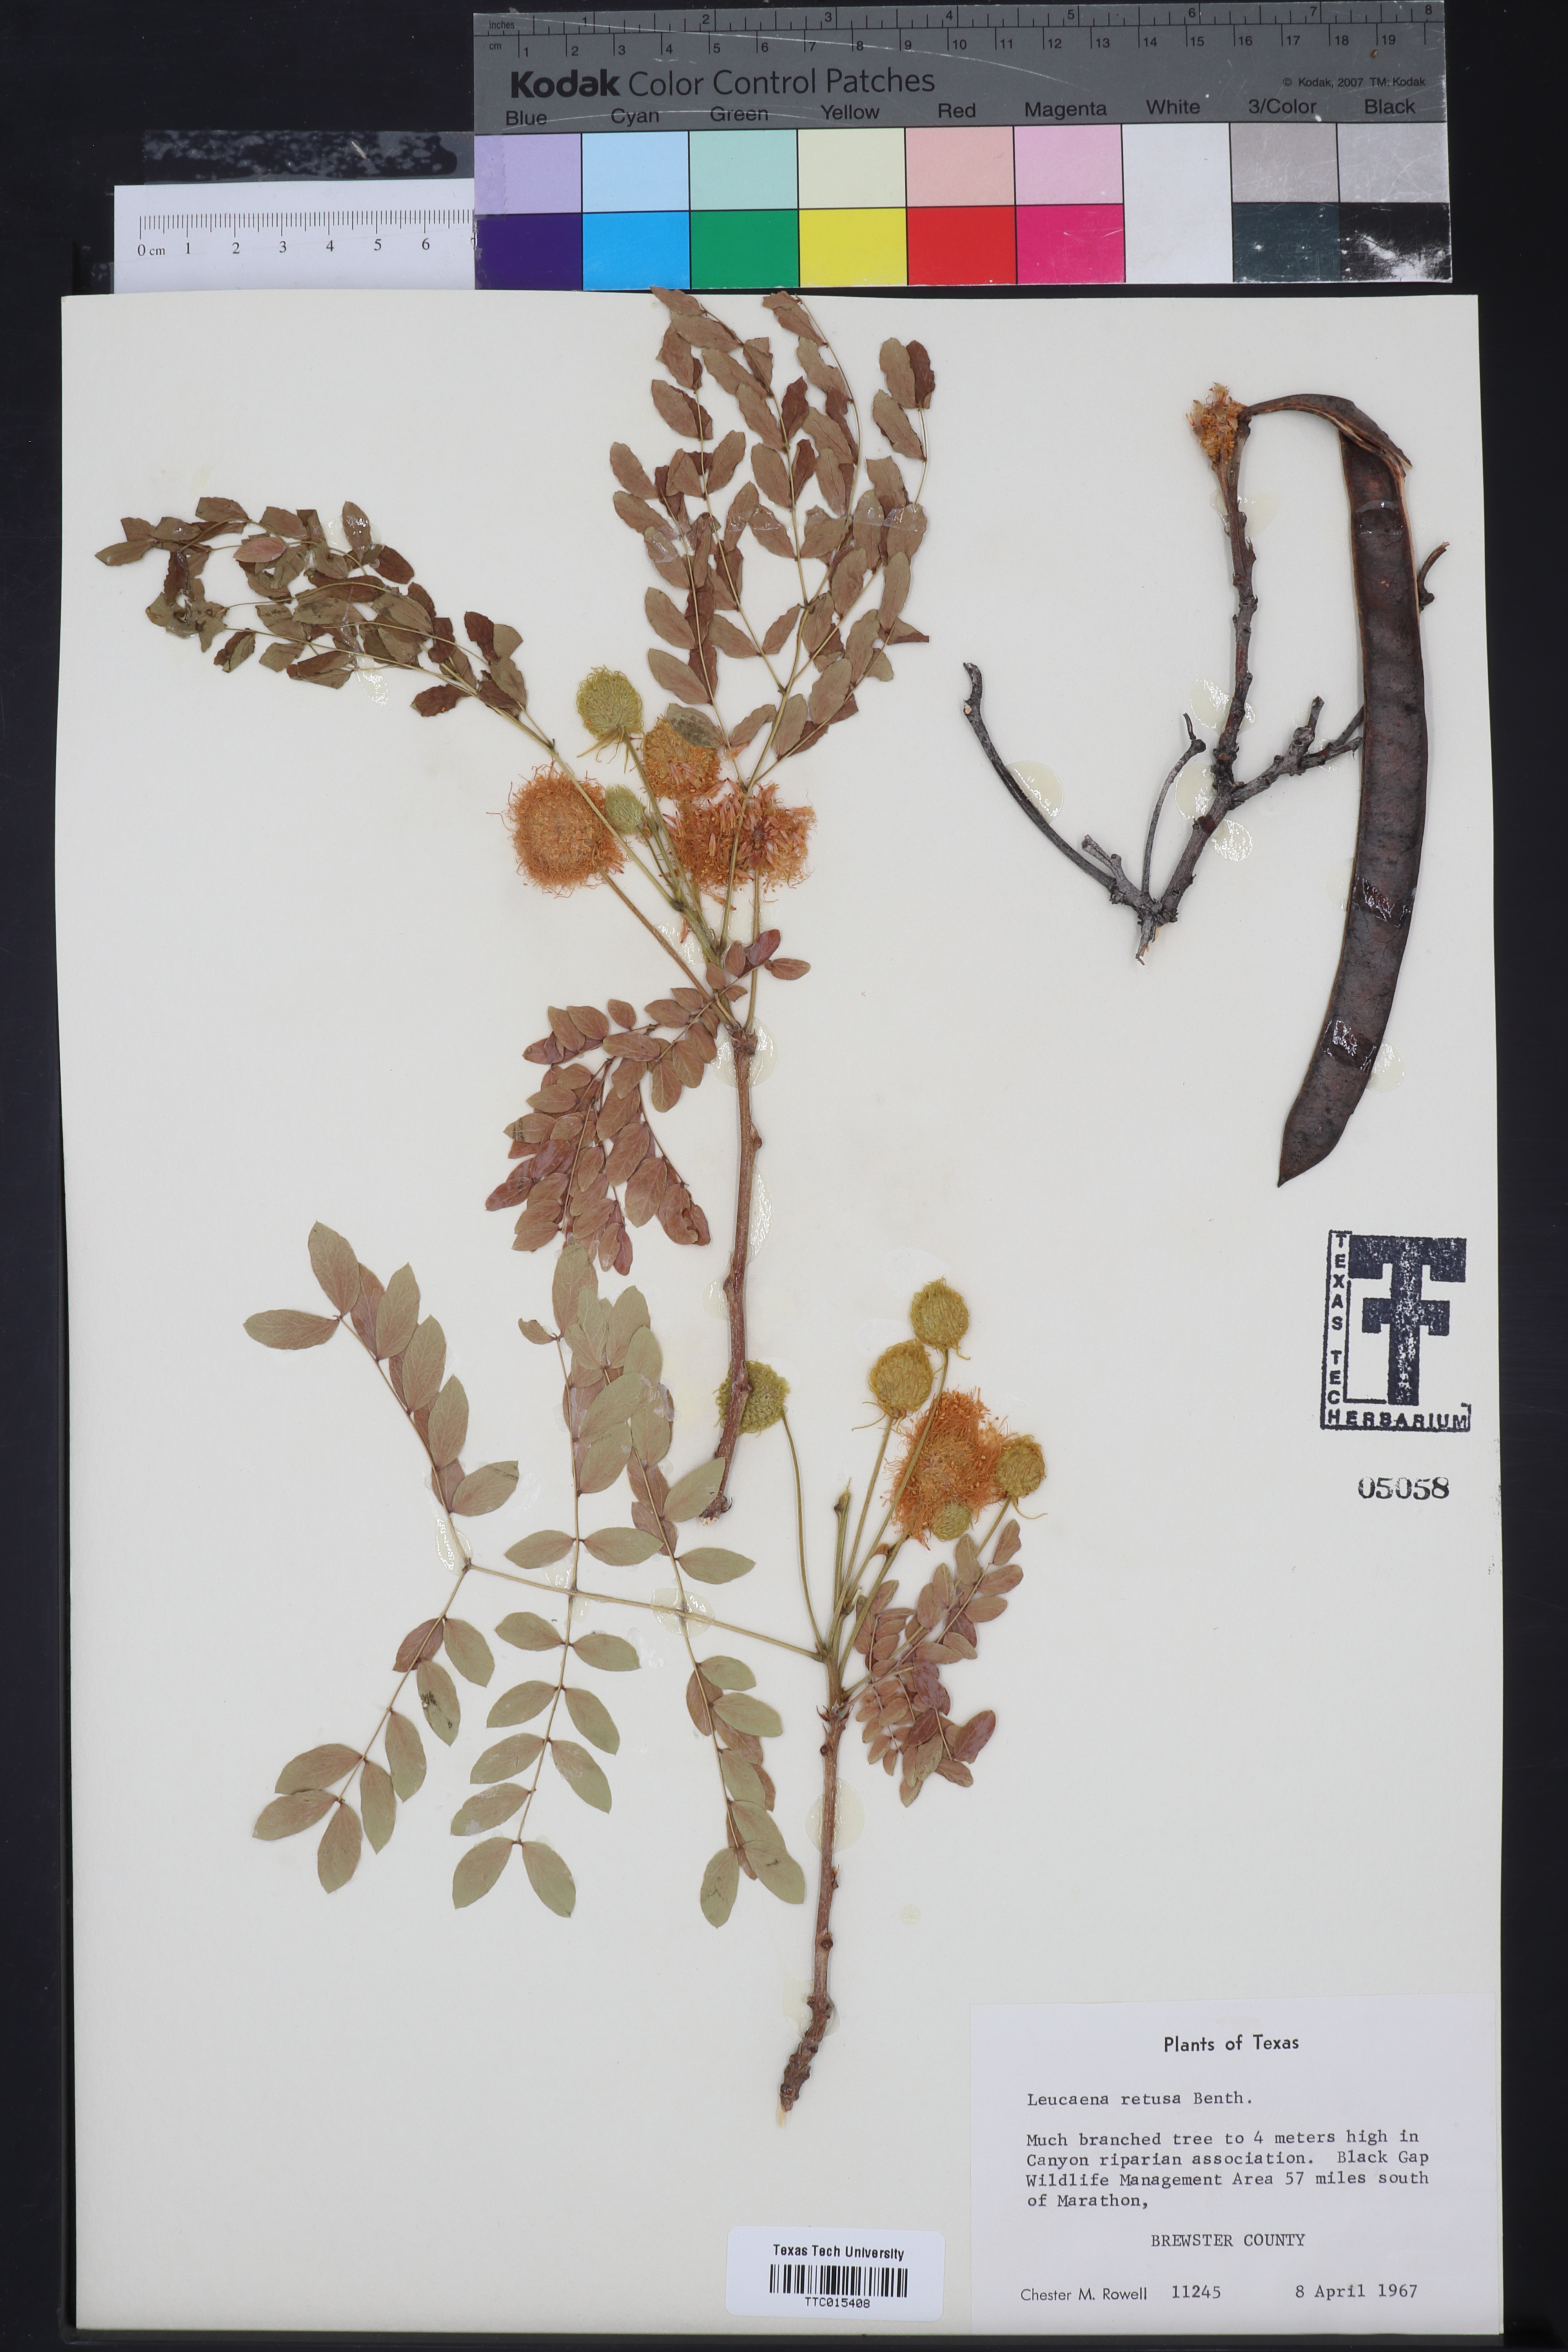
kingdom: Plantae
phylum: Tracheophyta
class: Magnoliopsida
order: Fabales
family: Fabaceae
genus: Leucaena
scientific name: Leucaena retusa
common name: Littleleaf leadtree
